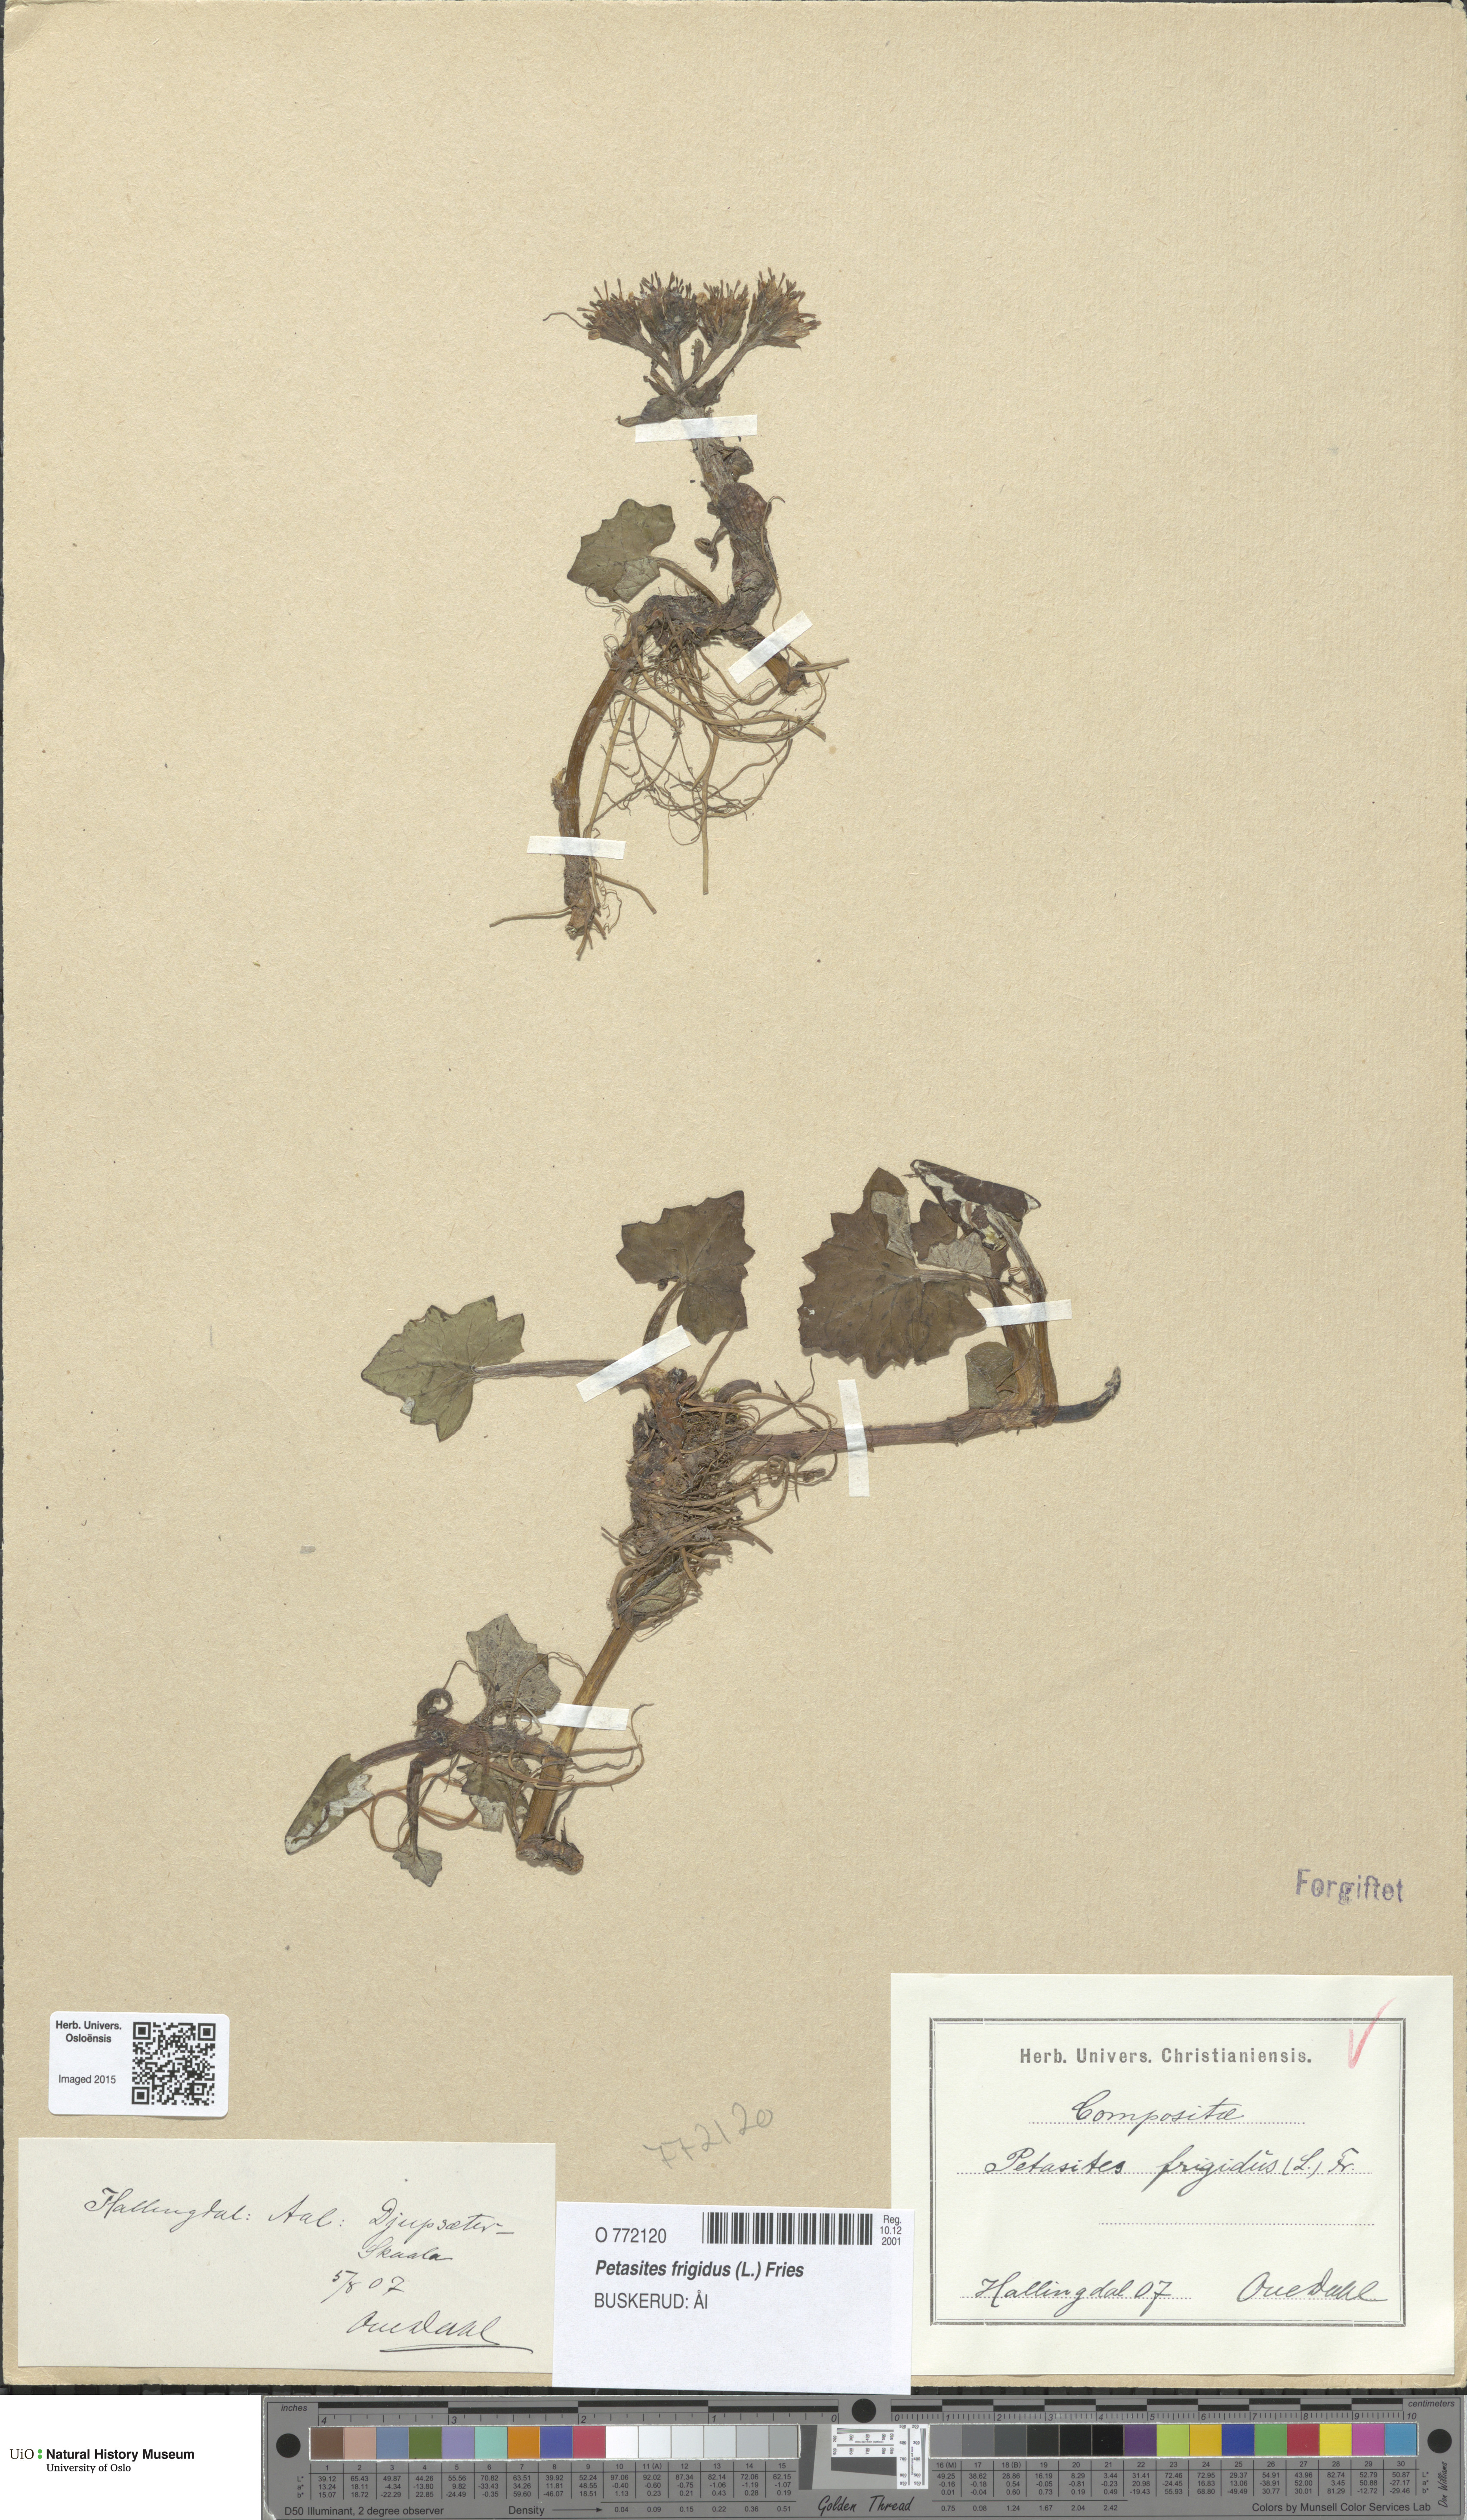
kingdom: Plantae
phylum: Tracheophyta
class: Magnoliopsida
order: Asterales
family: Asteraceae
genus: Petasites
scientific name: Petasites frigidus
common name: Arctic butterbur
